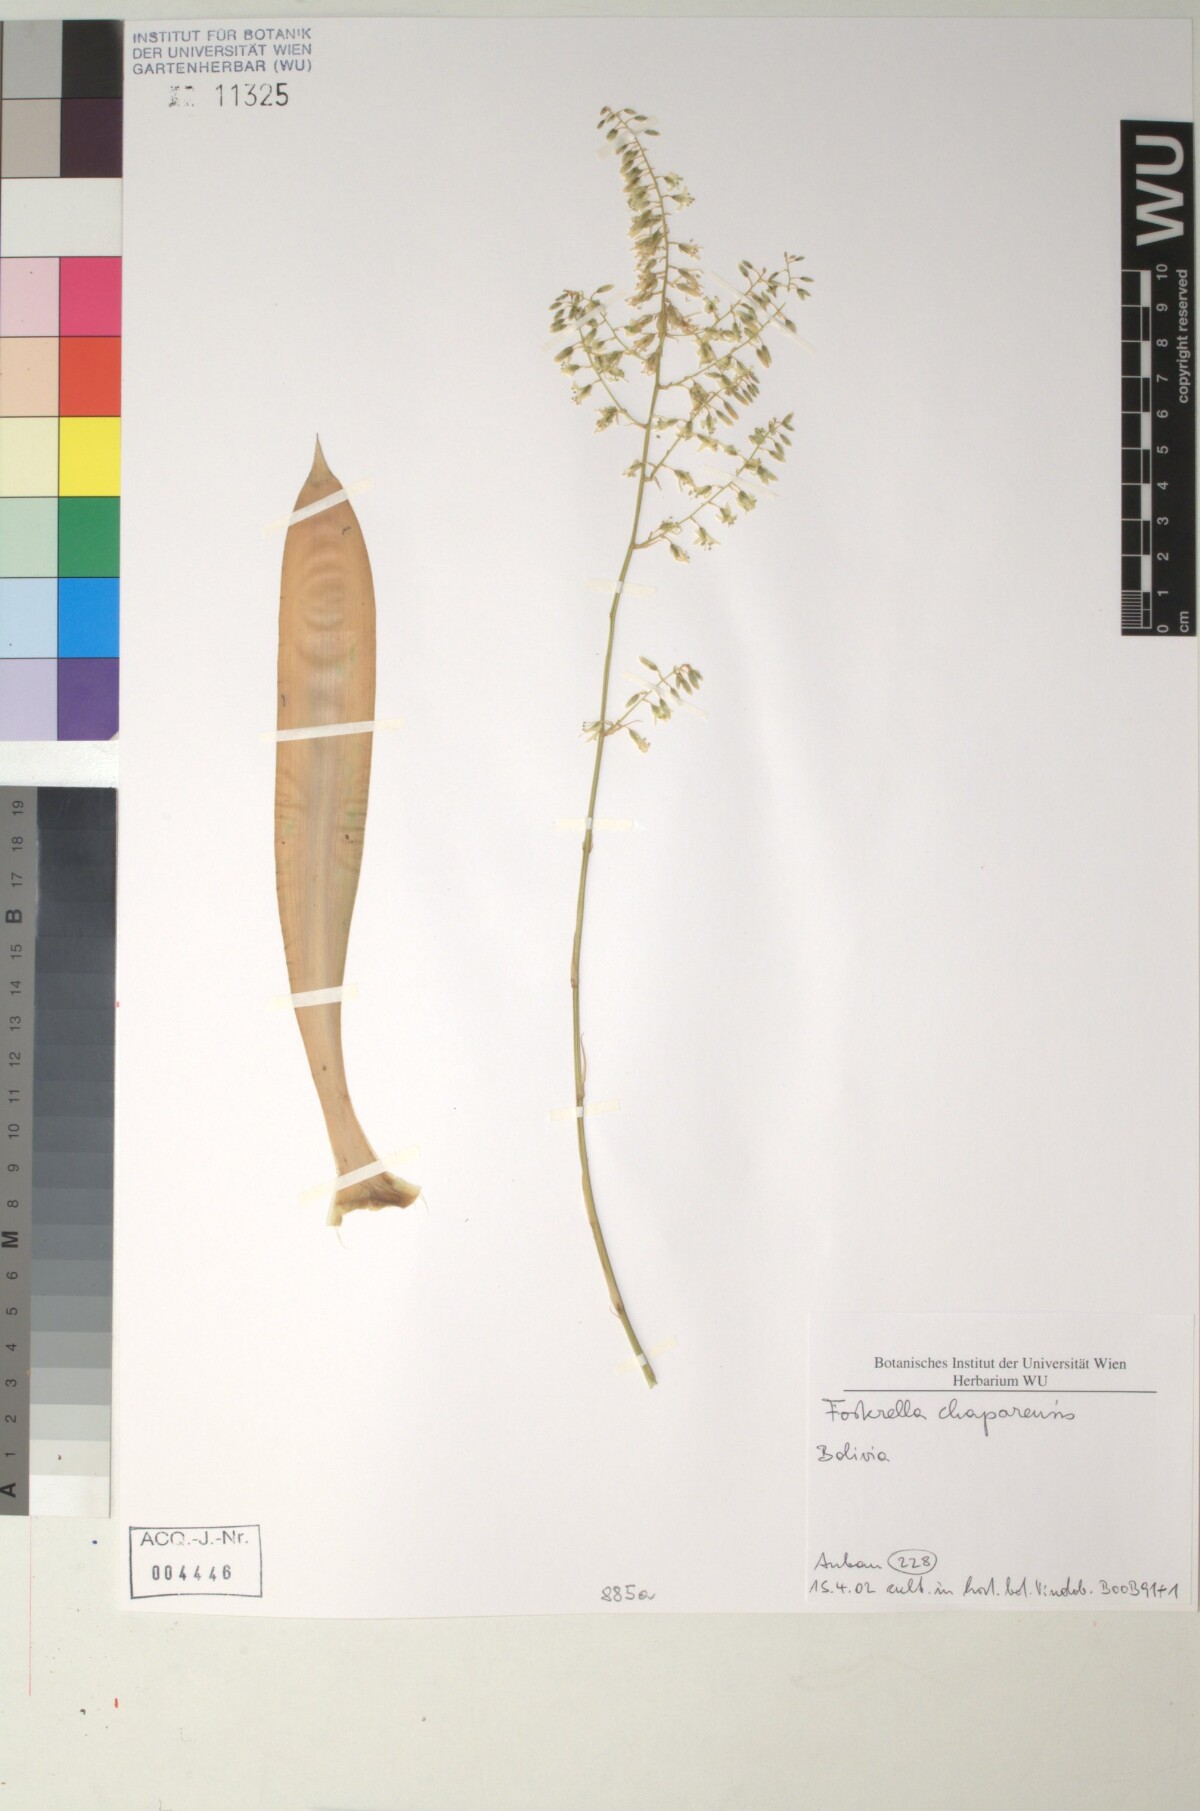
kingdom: Plantae
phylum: Tracheophyta
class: Liliopsida
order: Poales
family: Bromeliaceae
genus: Fosterella
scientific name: Fosterella chaparensis
